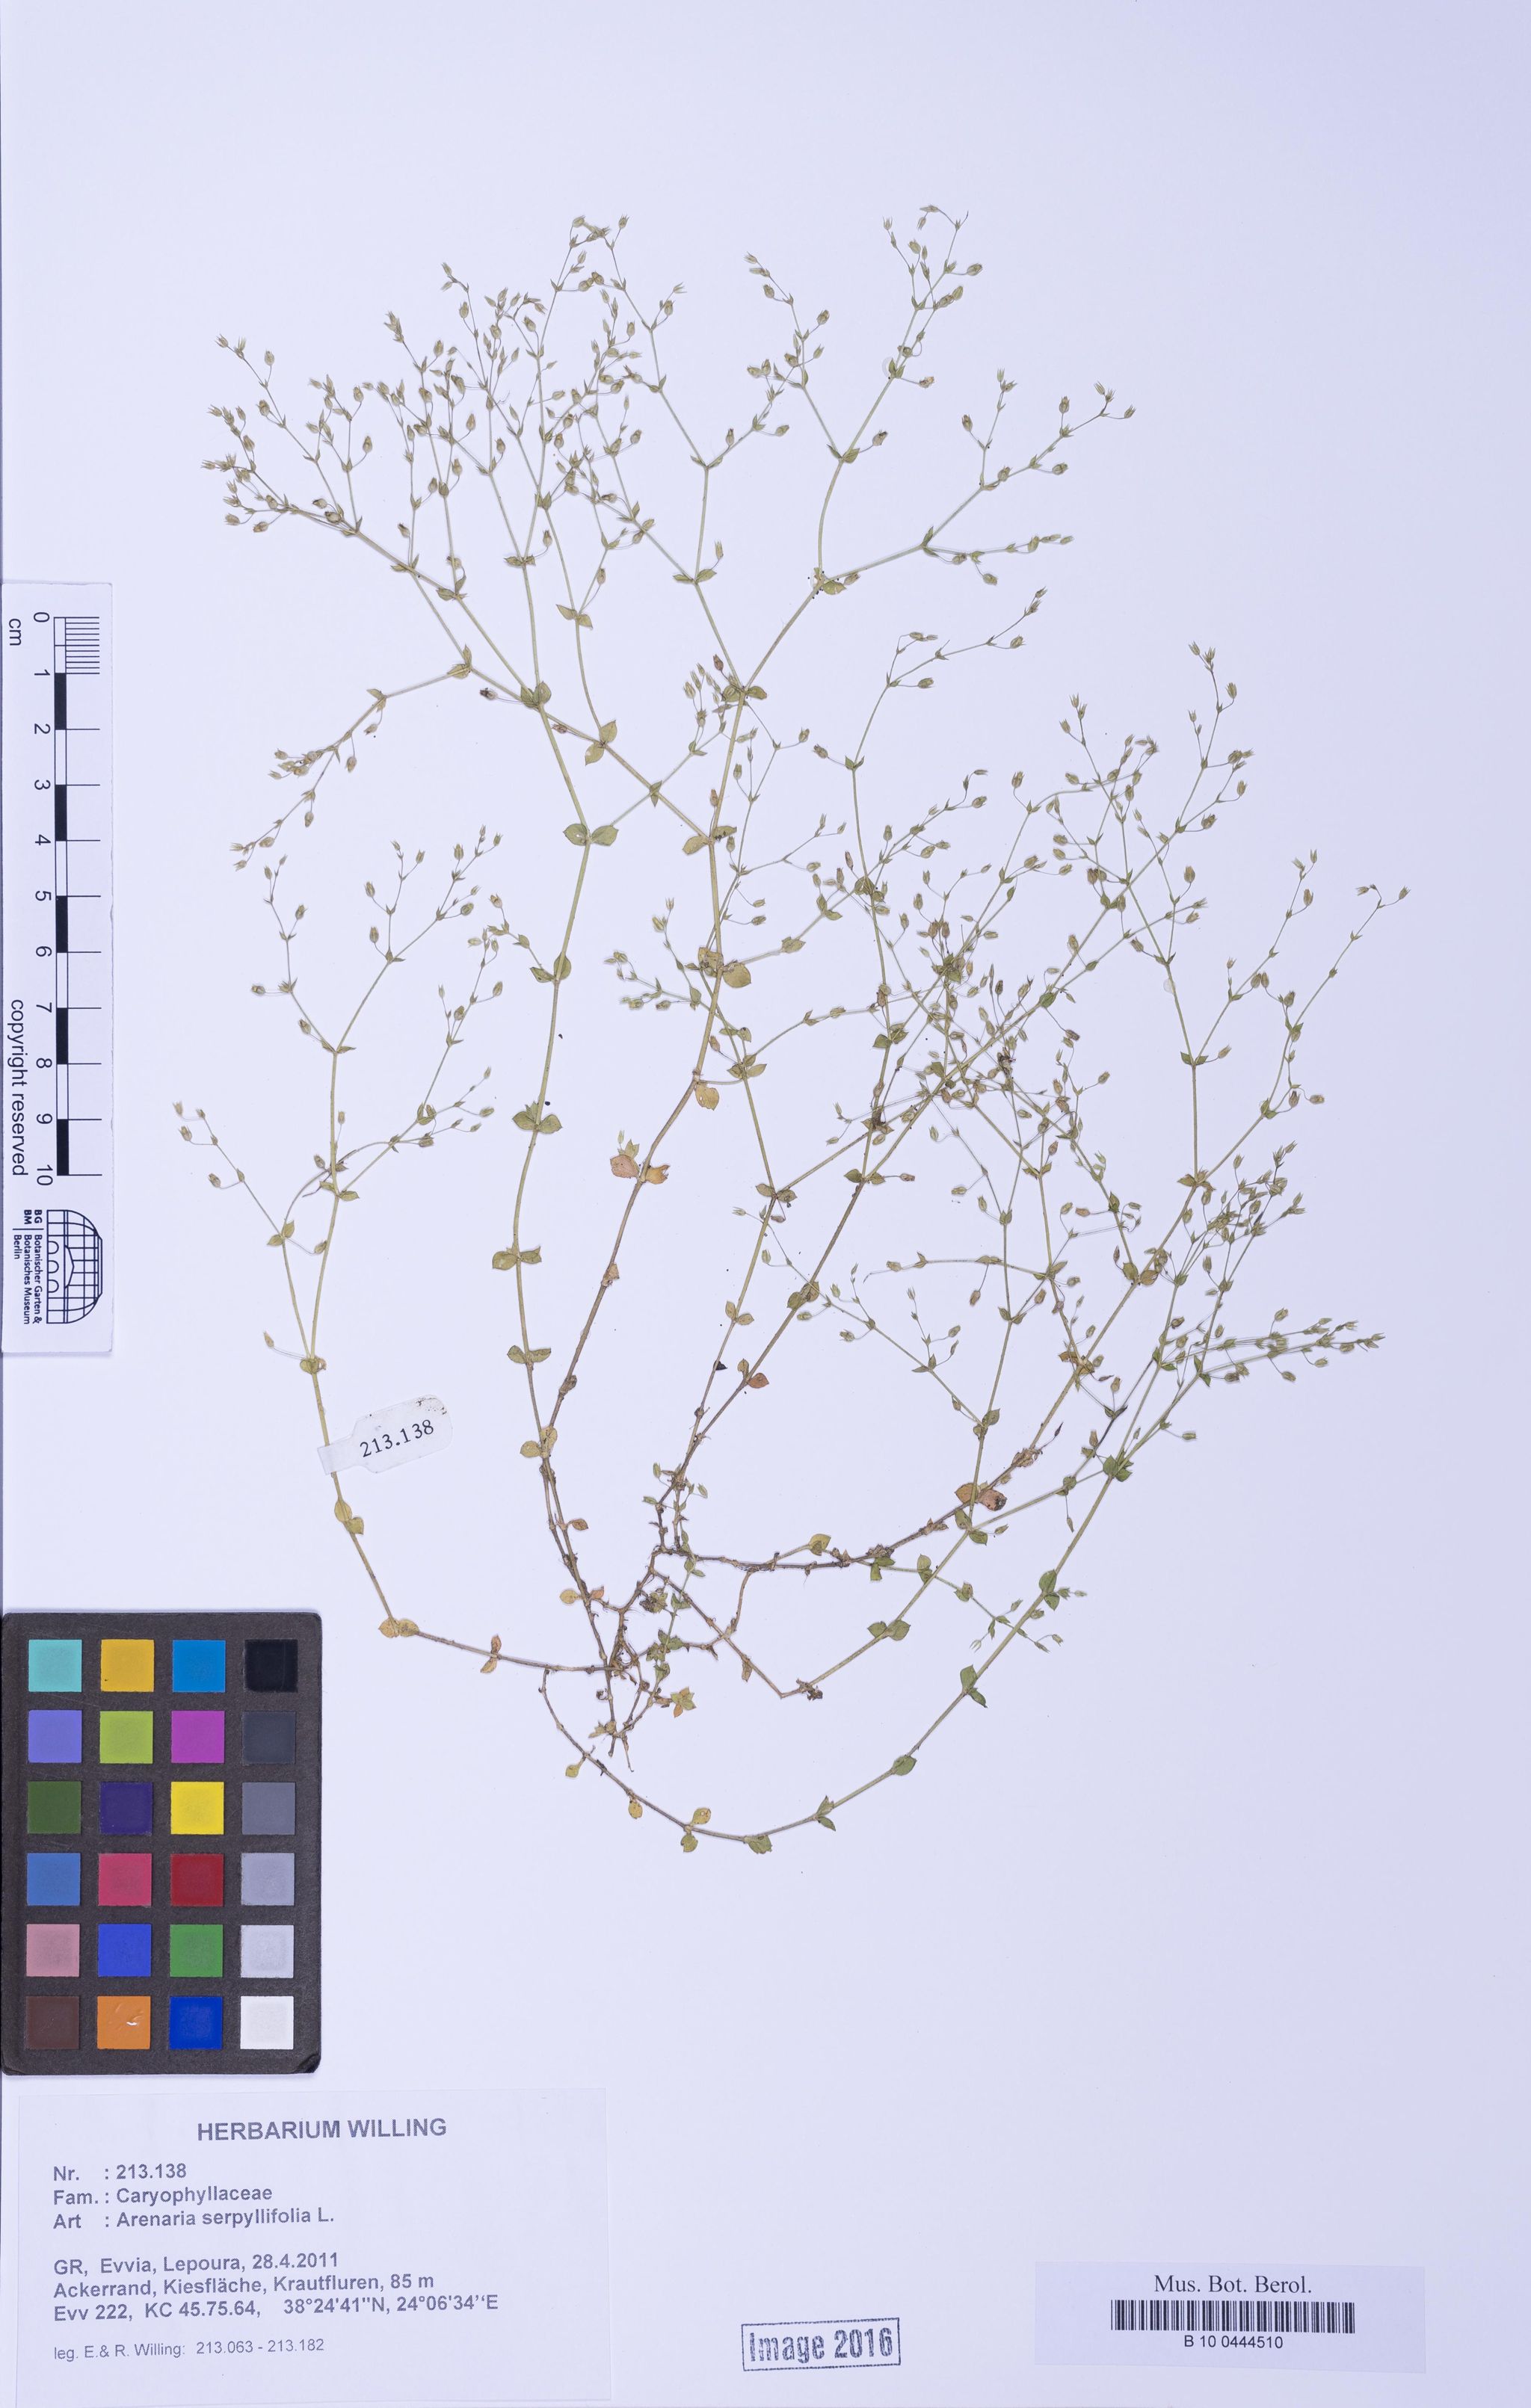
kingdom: Plantae
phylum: Tracheophyta
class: Magnoliopsida
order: Caryophyllales
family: Caryophyllaceae
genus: Arenaria
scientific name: Arenaria serpyllifolia
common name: Thyme-leaved sandwort
